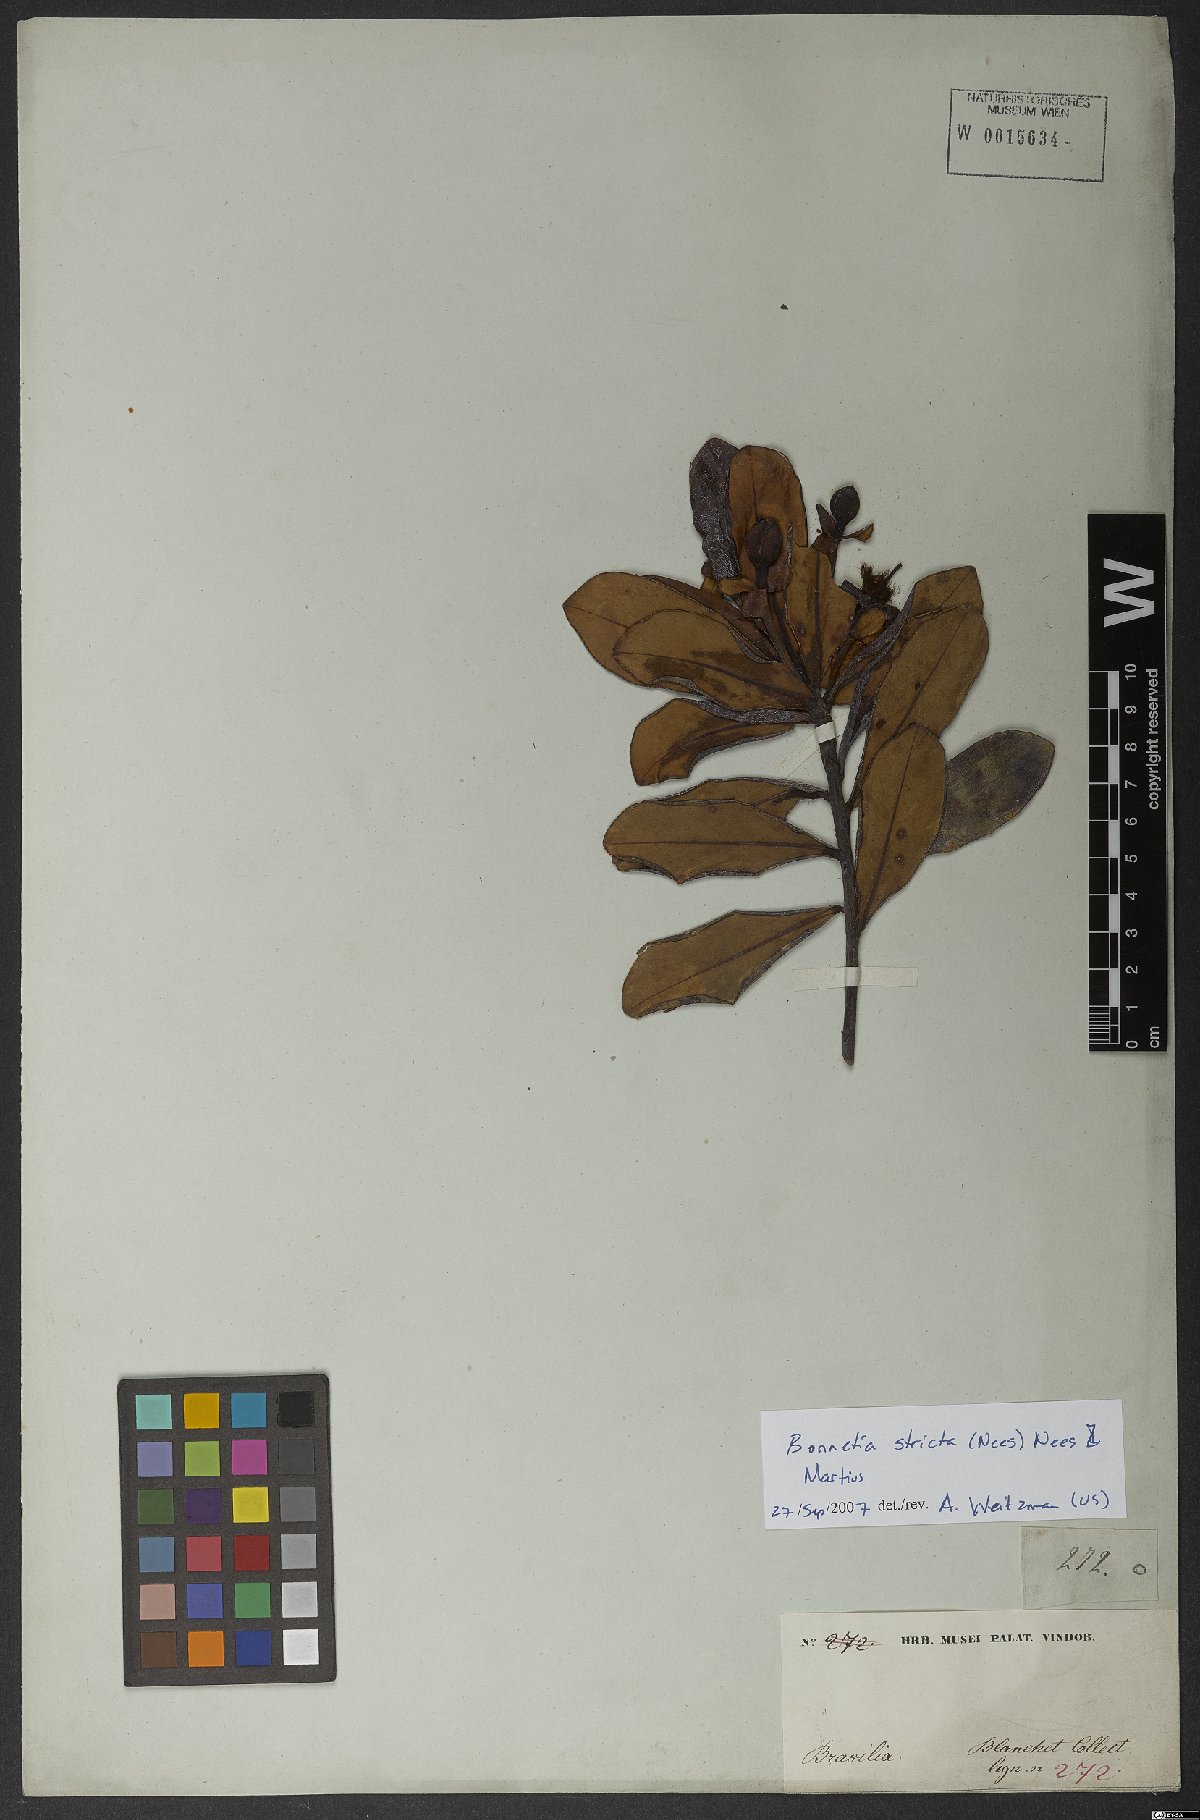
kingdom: Plantae
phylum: Tracheophyta
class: Magnoliopsida
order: Malpighiales
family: Bonnetiaceae
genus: Bonnetia
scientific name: Bonnetia stricta
